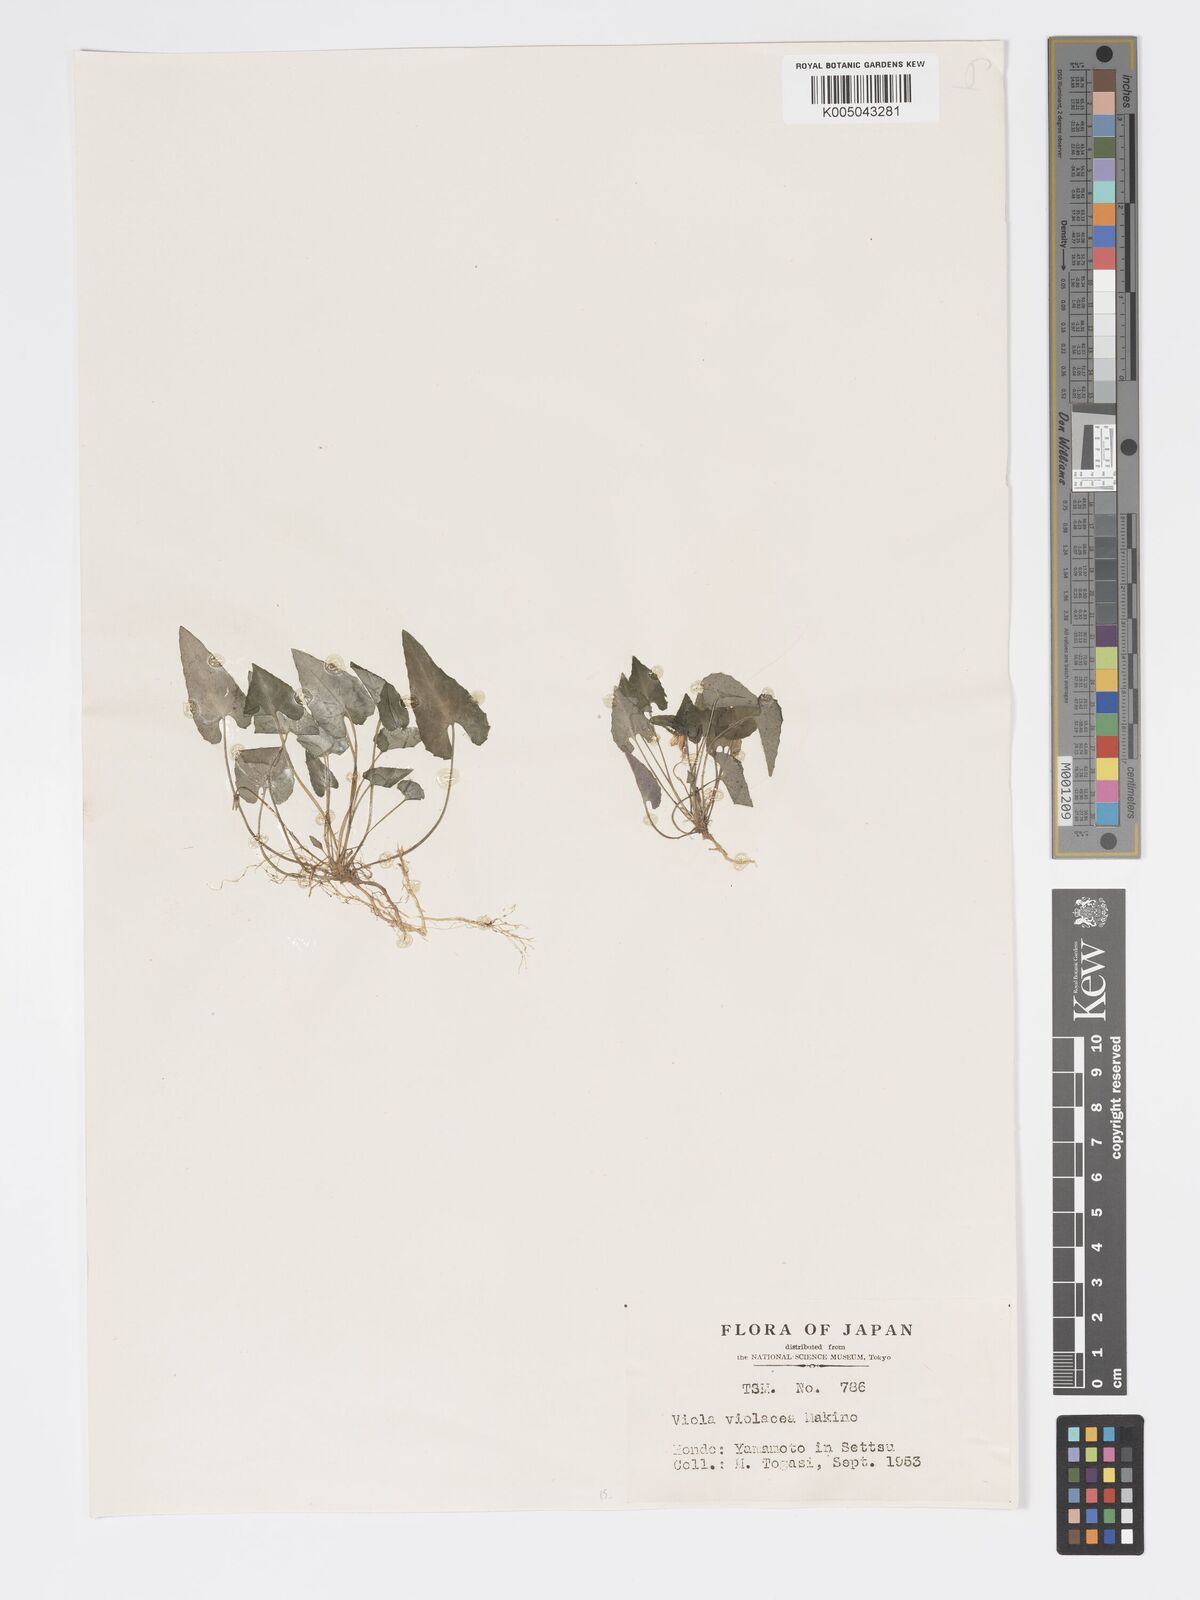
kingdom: Plantae
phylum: Tracheophyta
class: Magnoliopsida
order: Malpighiales
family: Violaceae
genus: Viola
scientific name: Viola violacea
